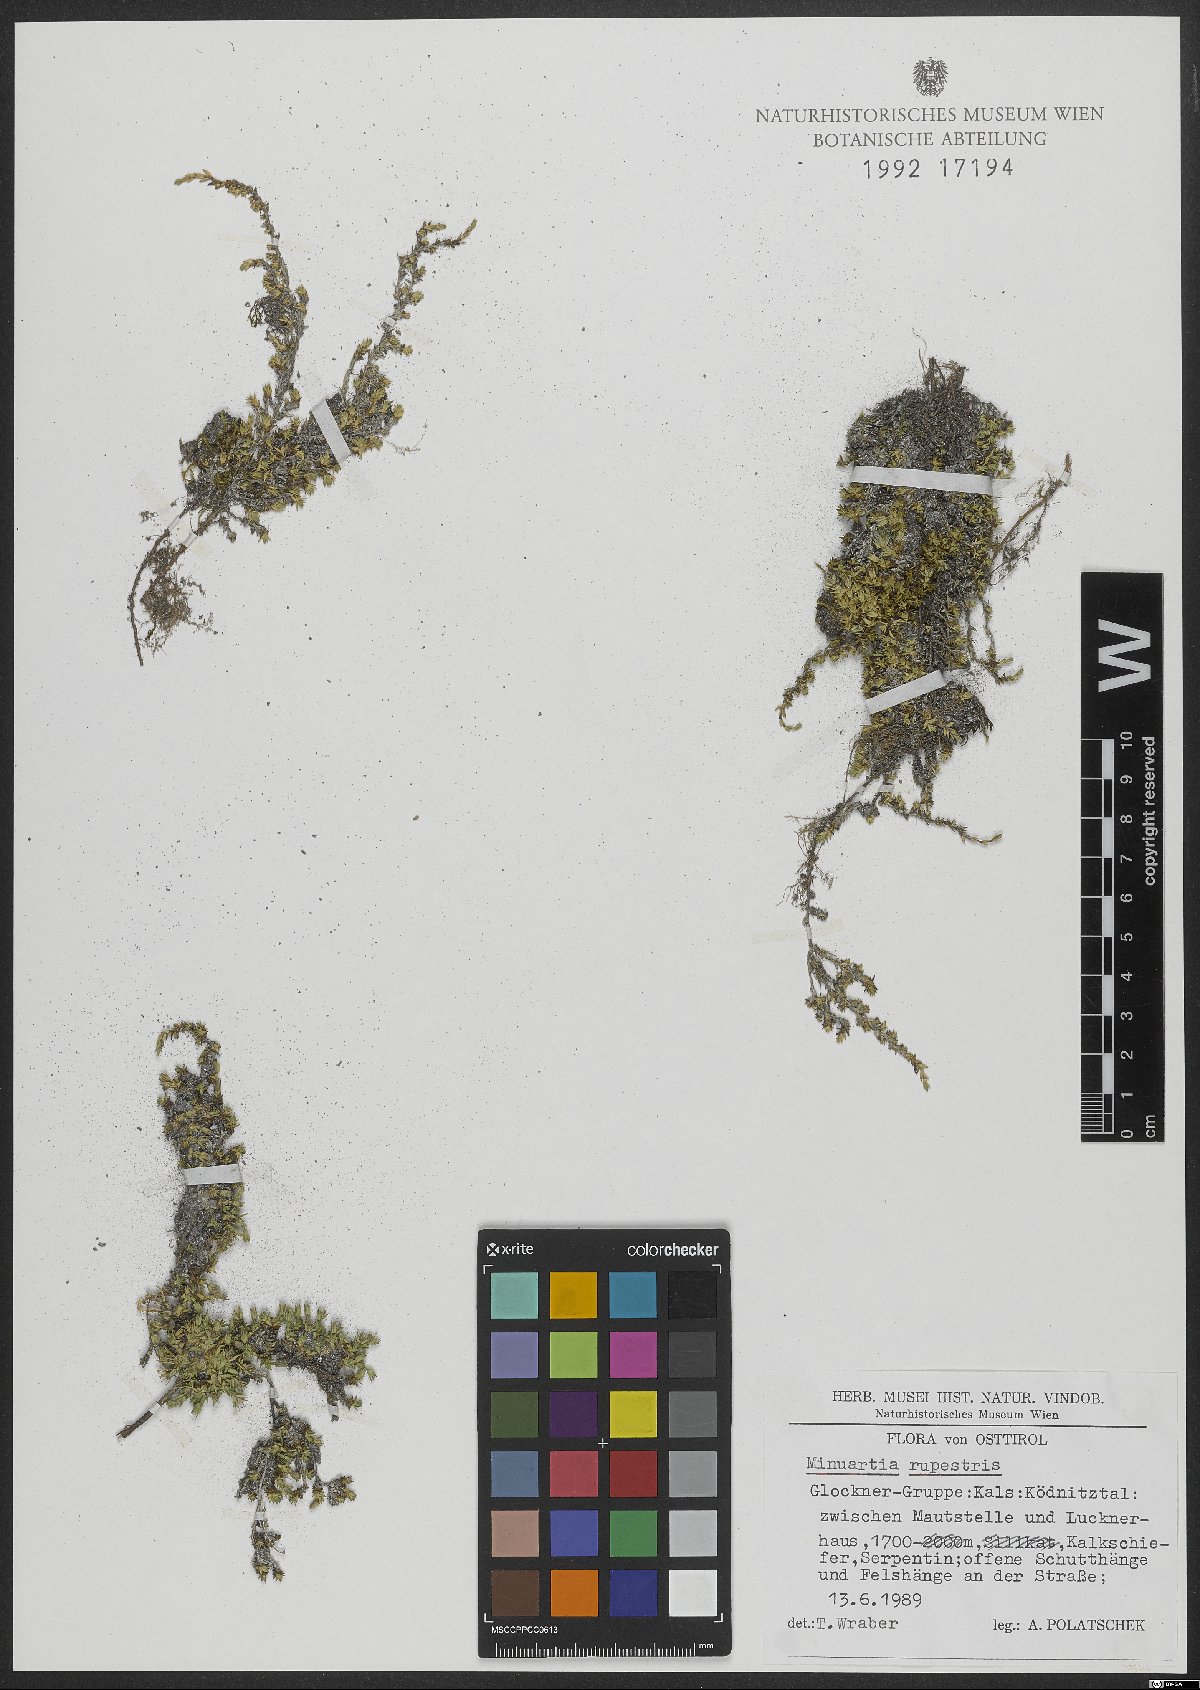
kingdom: Plantae
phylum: Tracheophyta
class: Magnoliopsida
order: Caryophyllales
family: Caryophyllaceae
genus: Facchinia
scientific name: Facchinia rupestris
